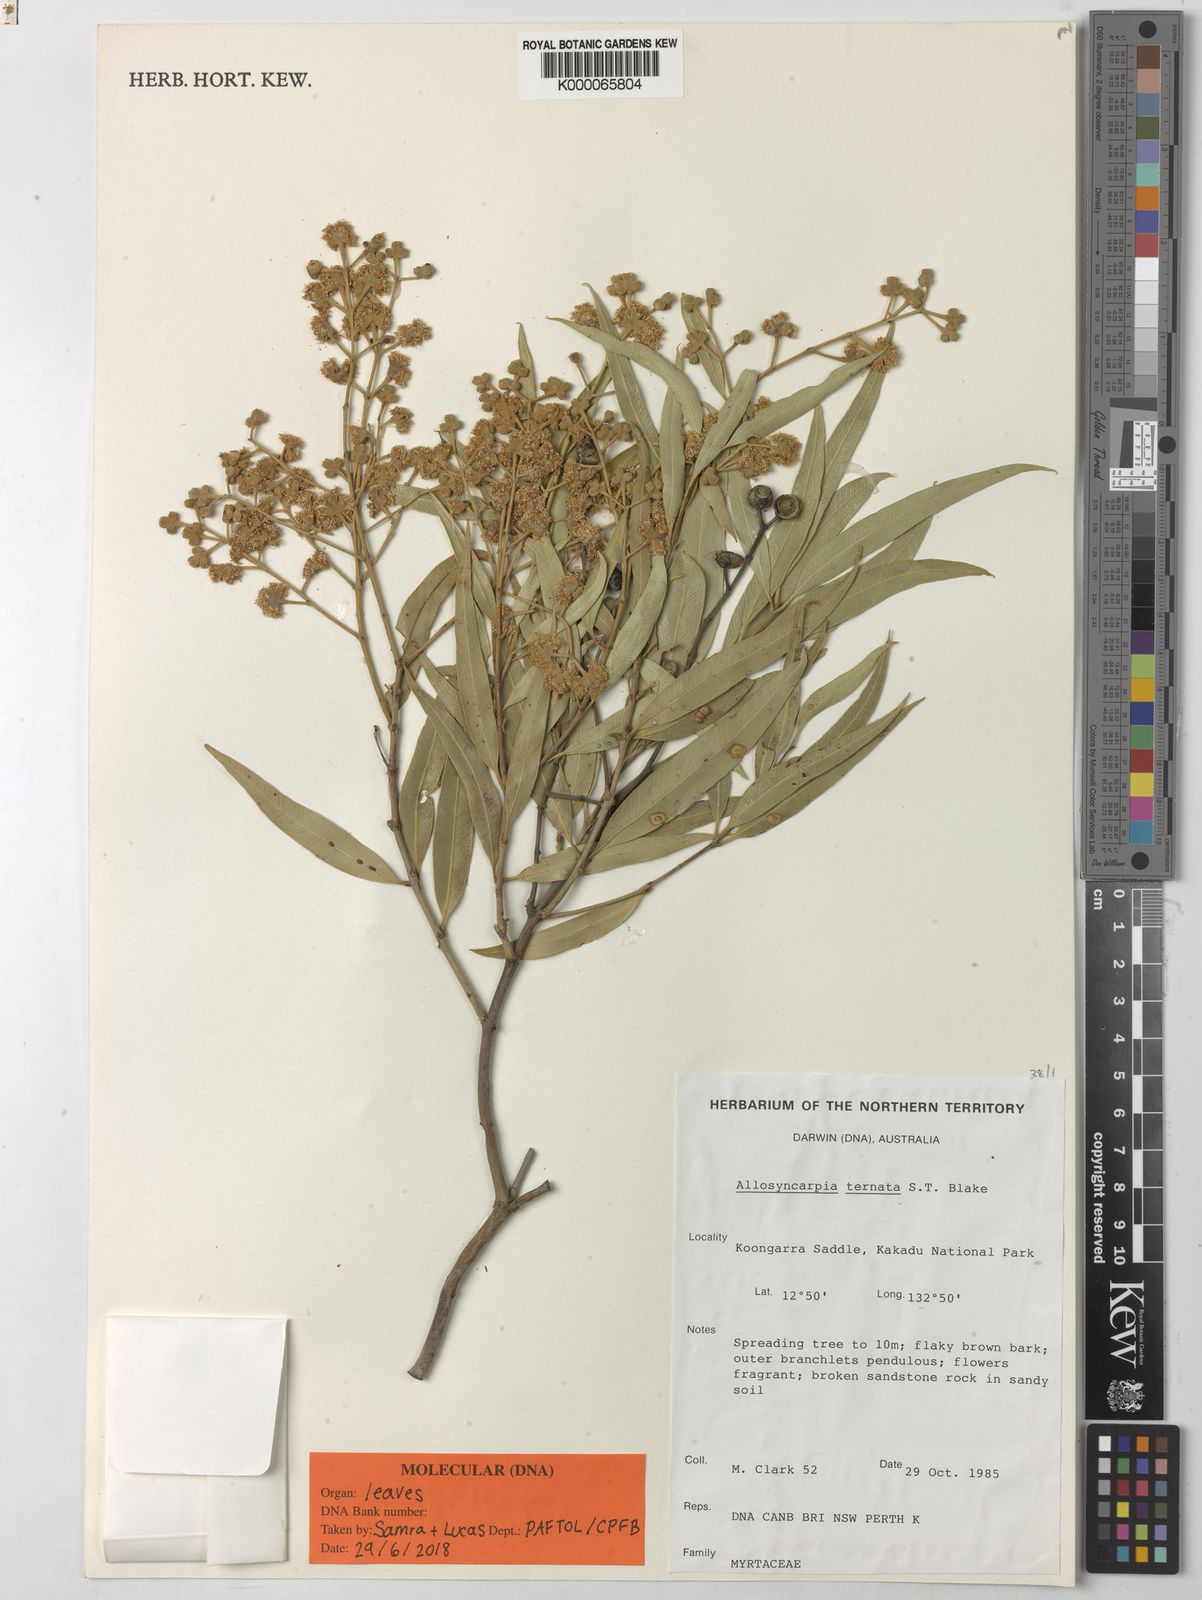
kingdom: Plantae
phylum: Tracheophyta
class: Magnoliopsida
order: Myrtales
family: Myrtaceae
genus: Allosyncarpia
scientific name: Allosyncarpia ternata
